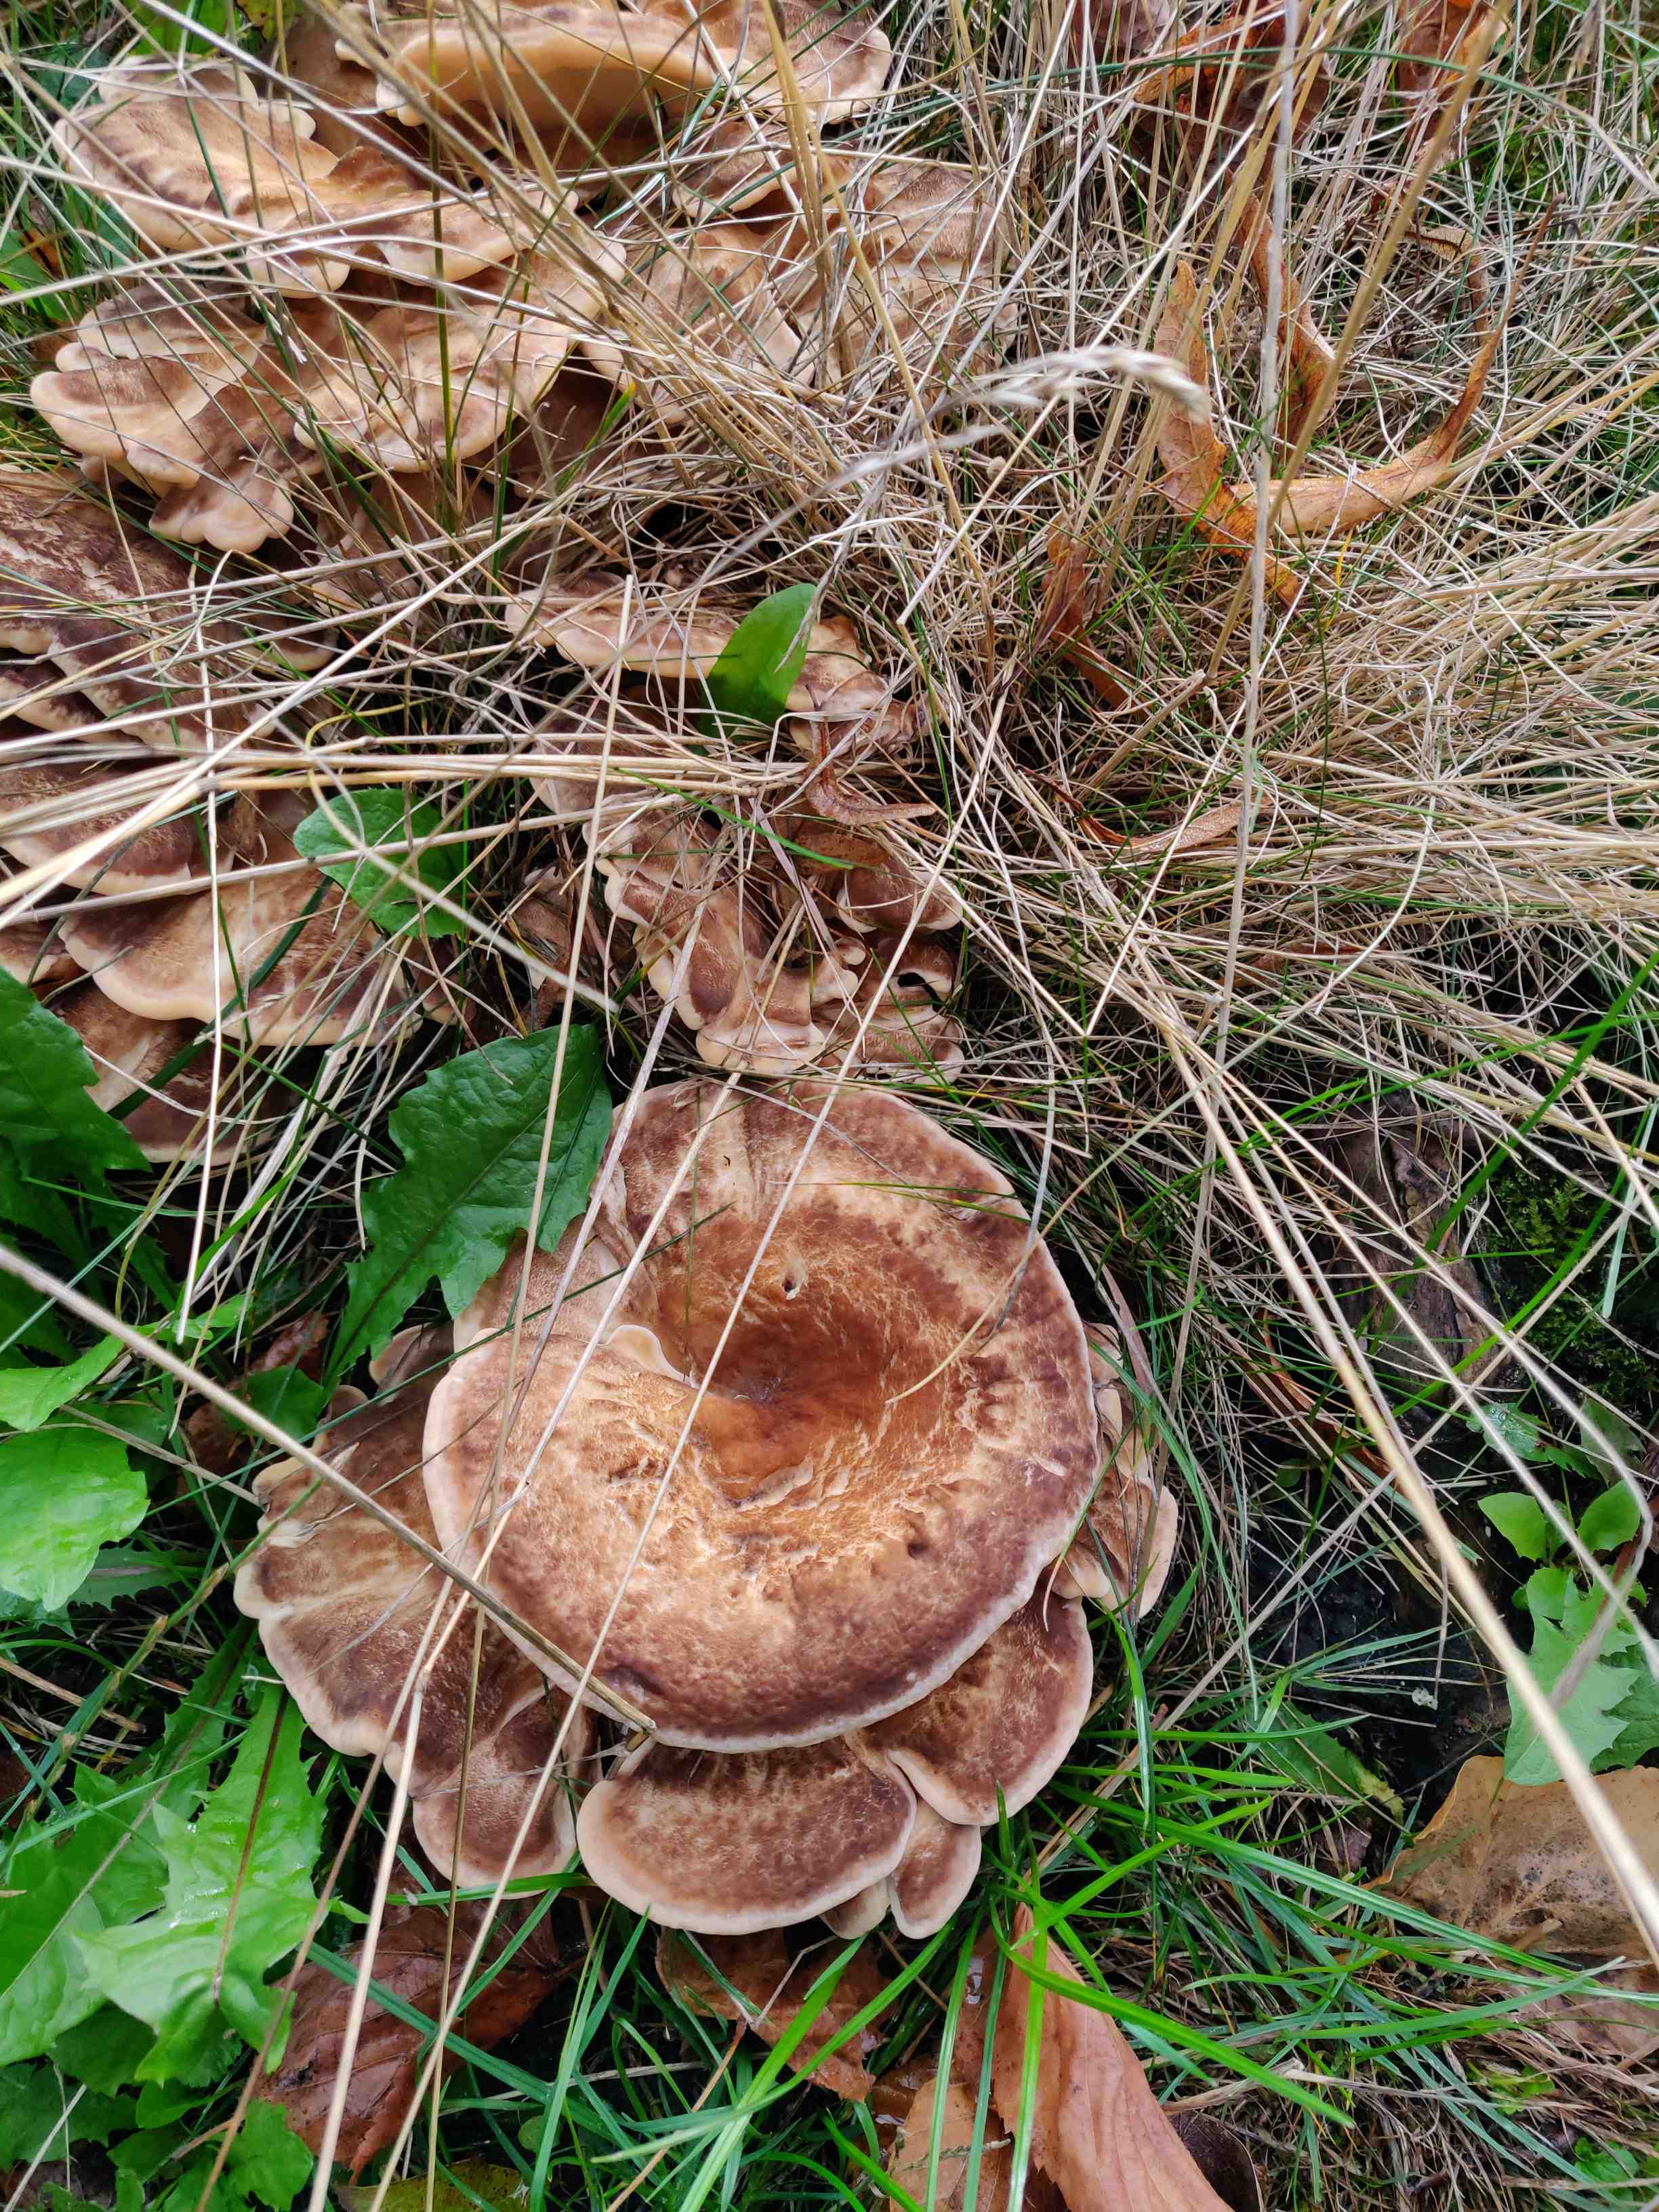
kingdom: Fungi
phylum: Basidiomycota
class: Agaricomycetes
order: Polyporales
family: Meripilaceae
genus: Meripilus
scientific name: Meripilus giganteus
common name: kæmpeporesvamp
